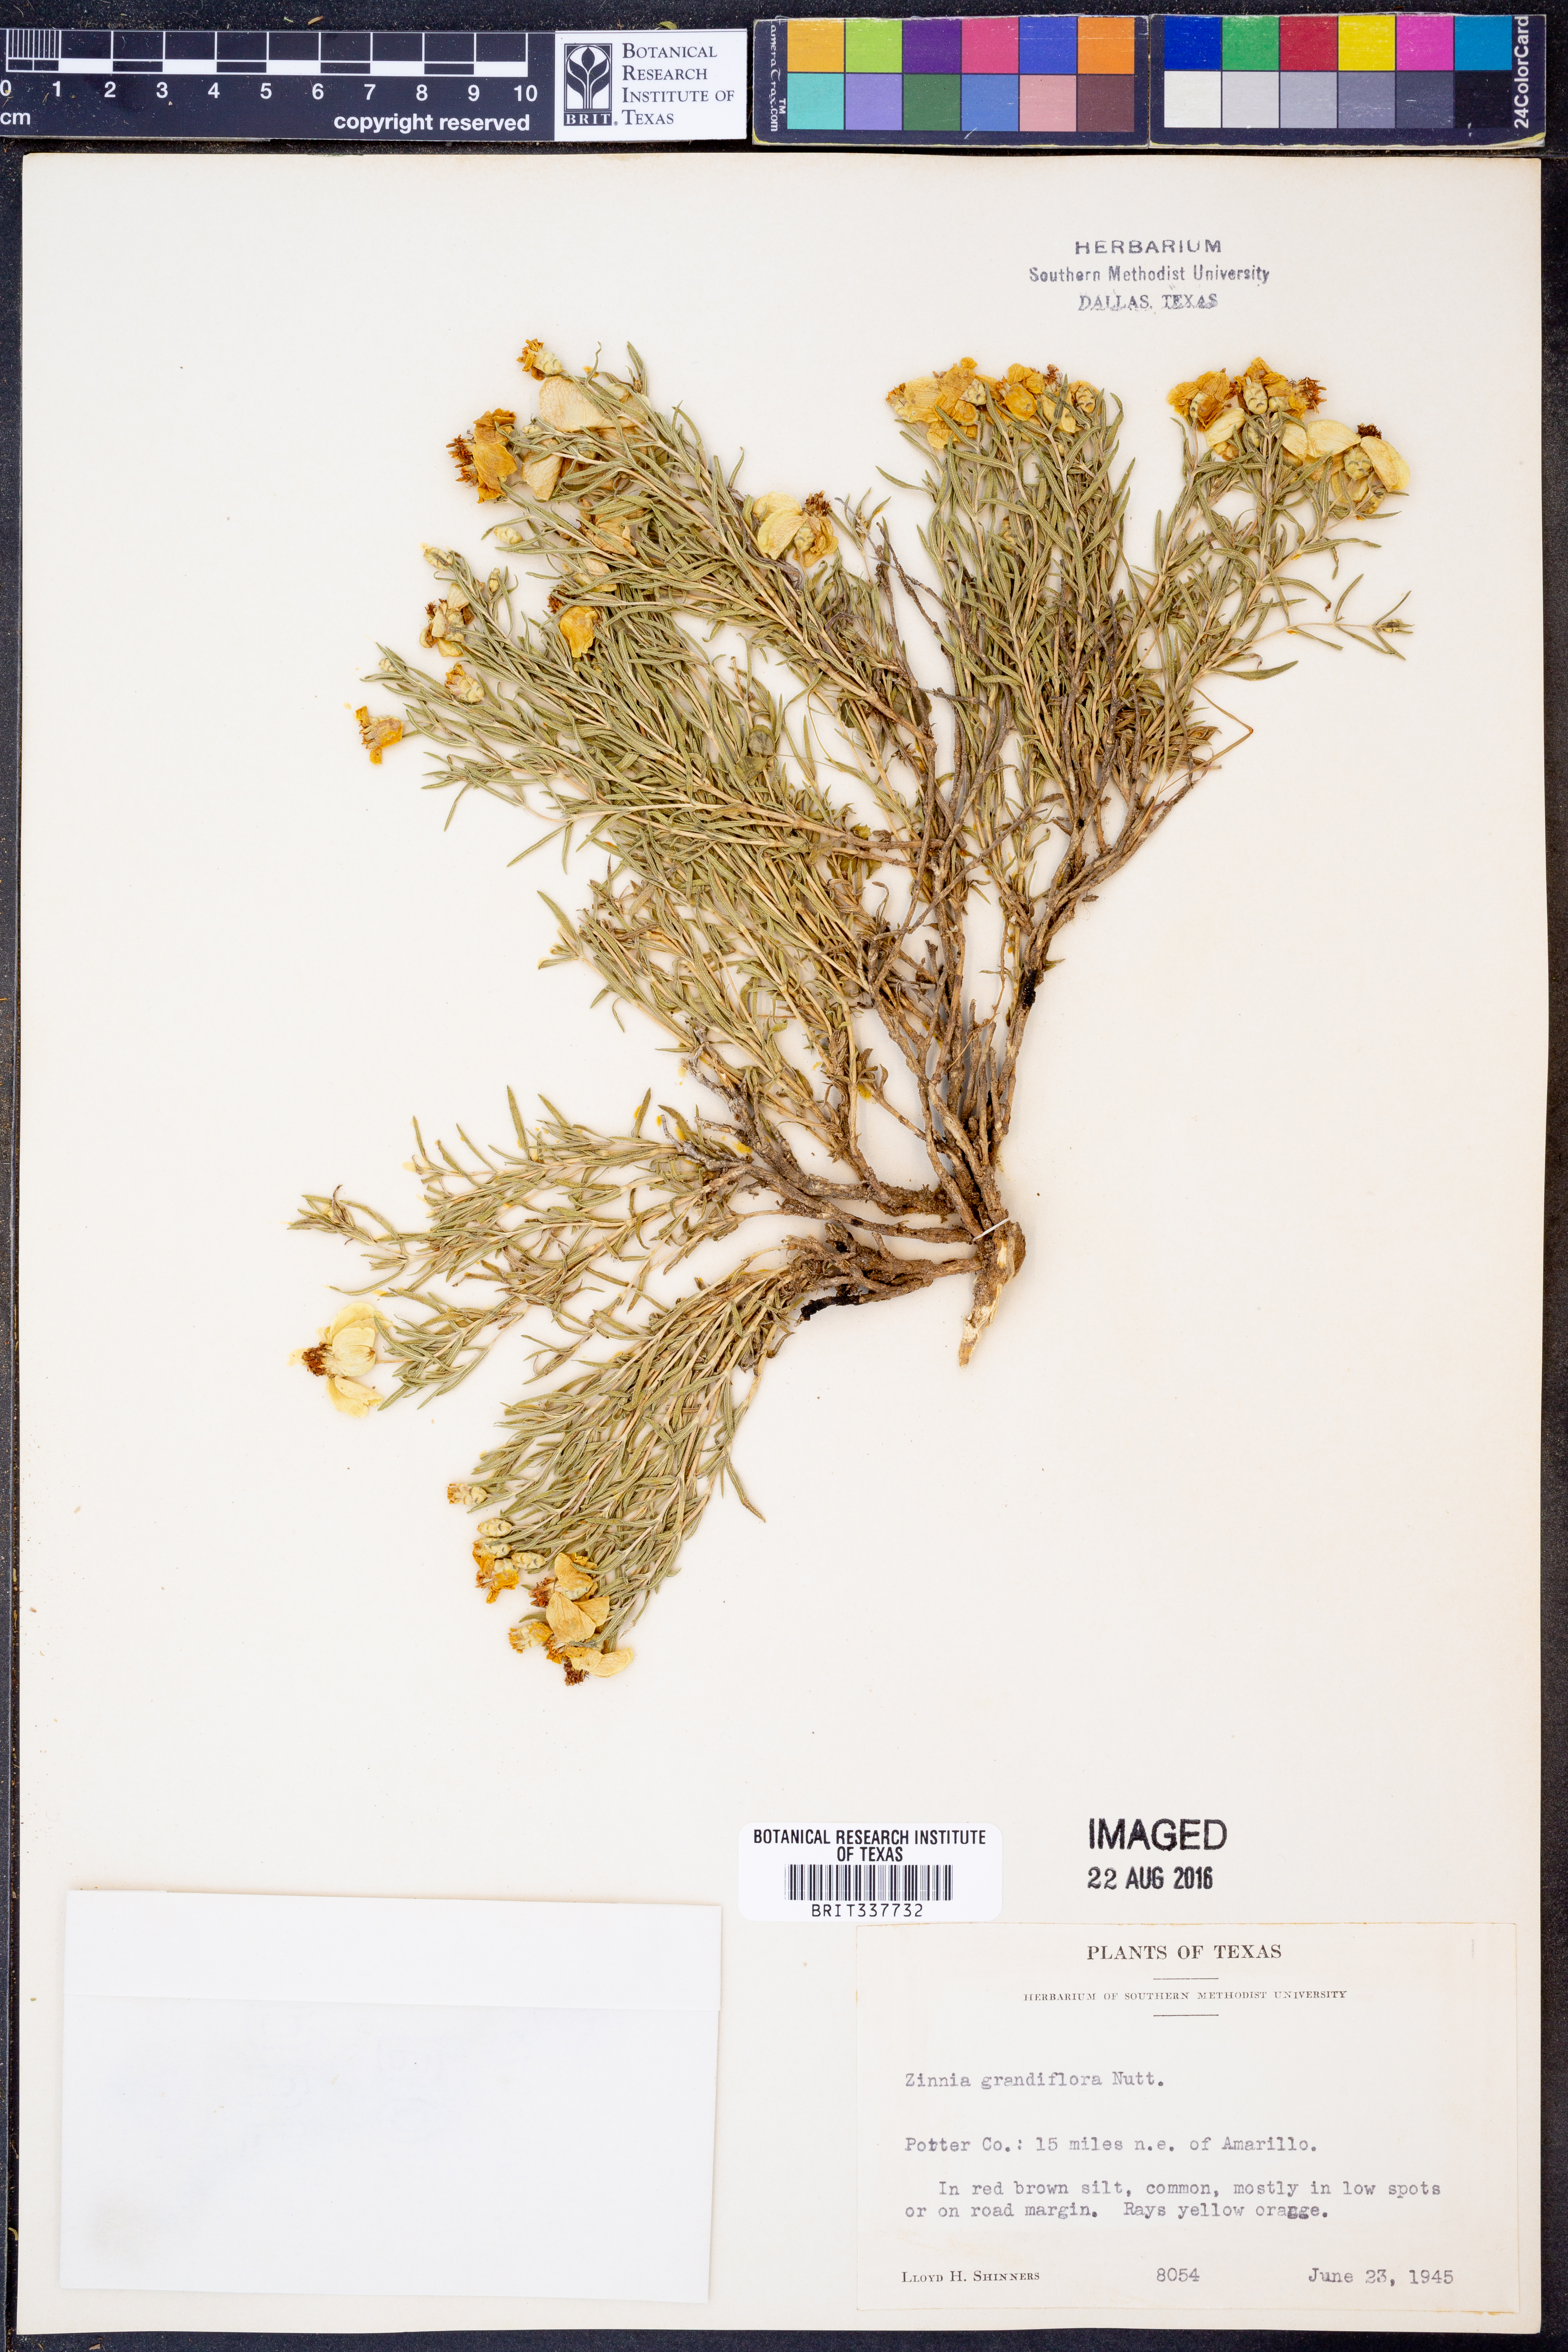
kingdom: Plantae
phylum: Tracheophyta
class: Magnoliopsida
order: Asterales
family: Asteraceae
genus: Zinnia
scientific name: Zinnia grandiflora
